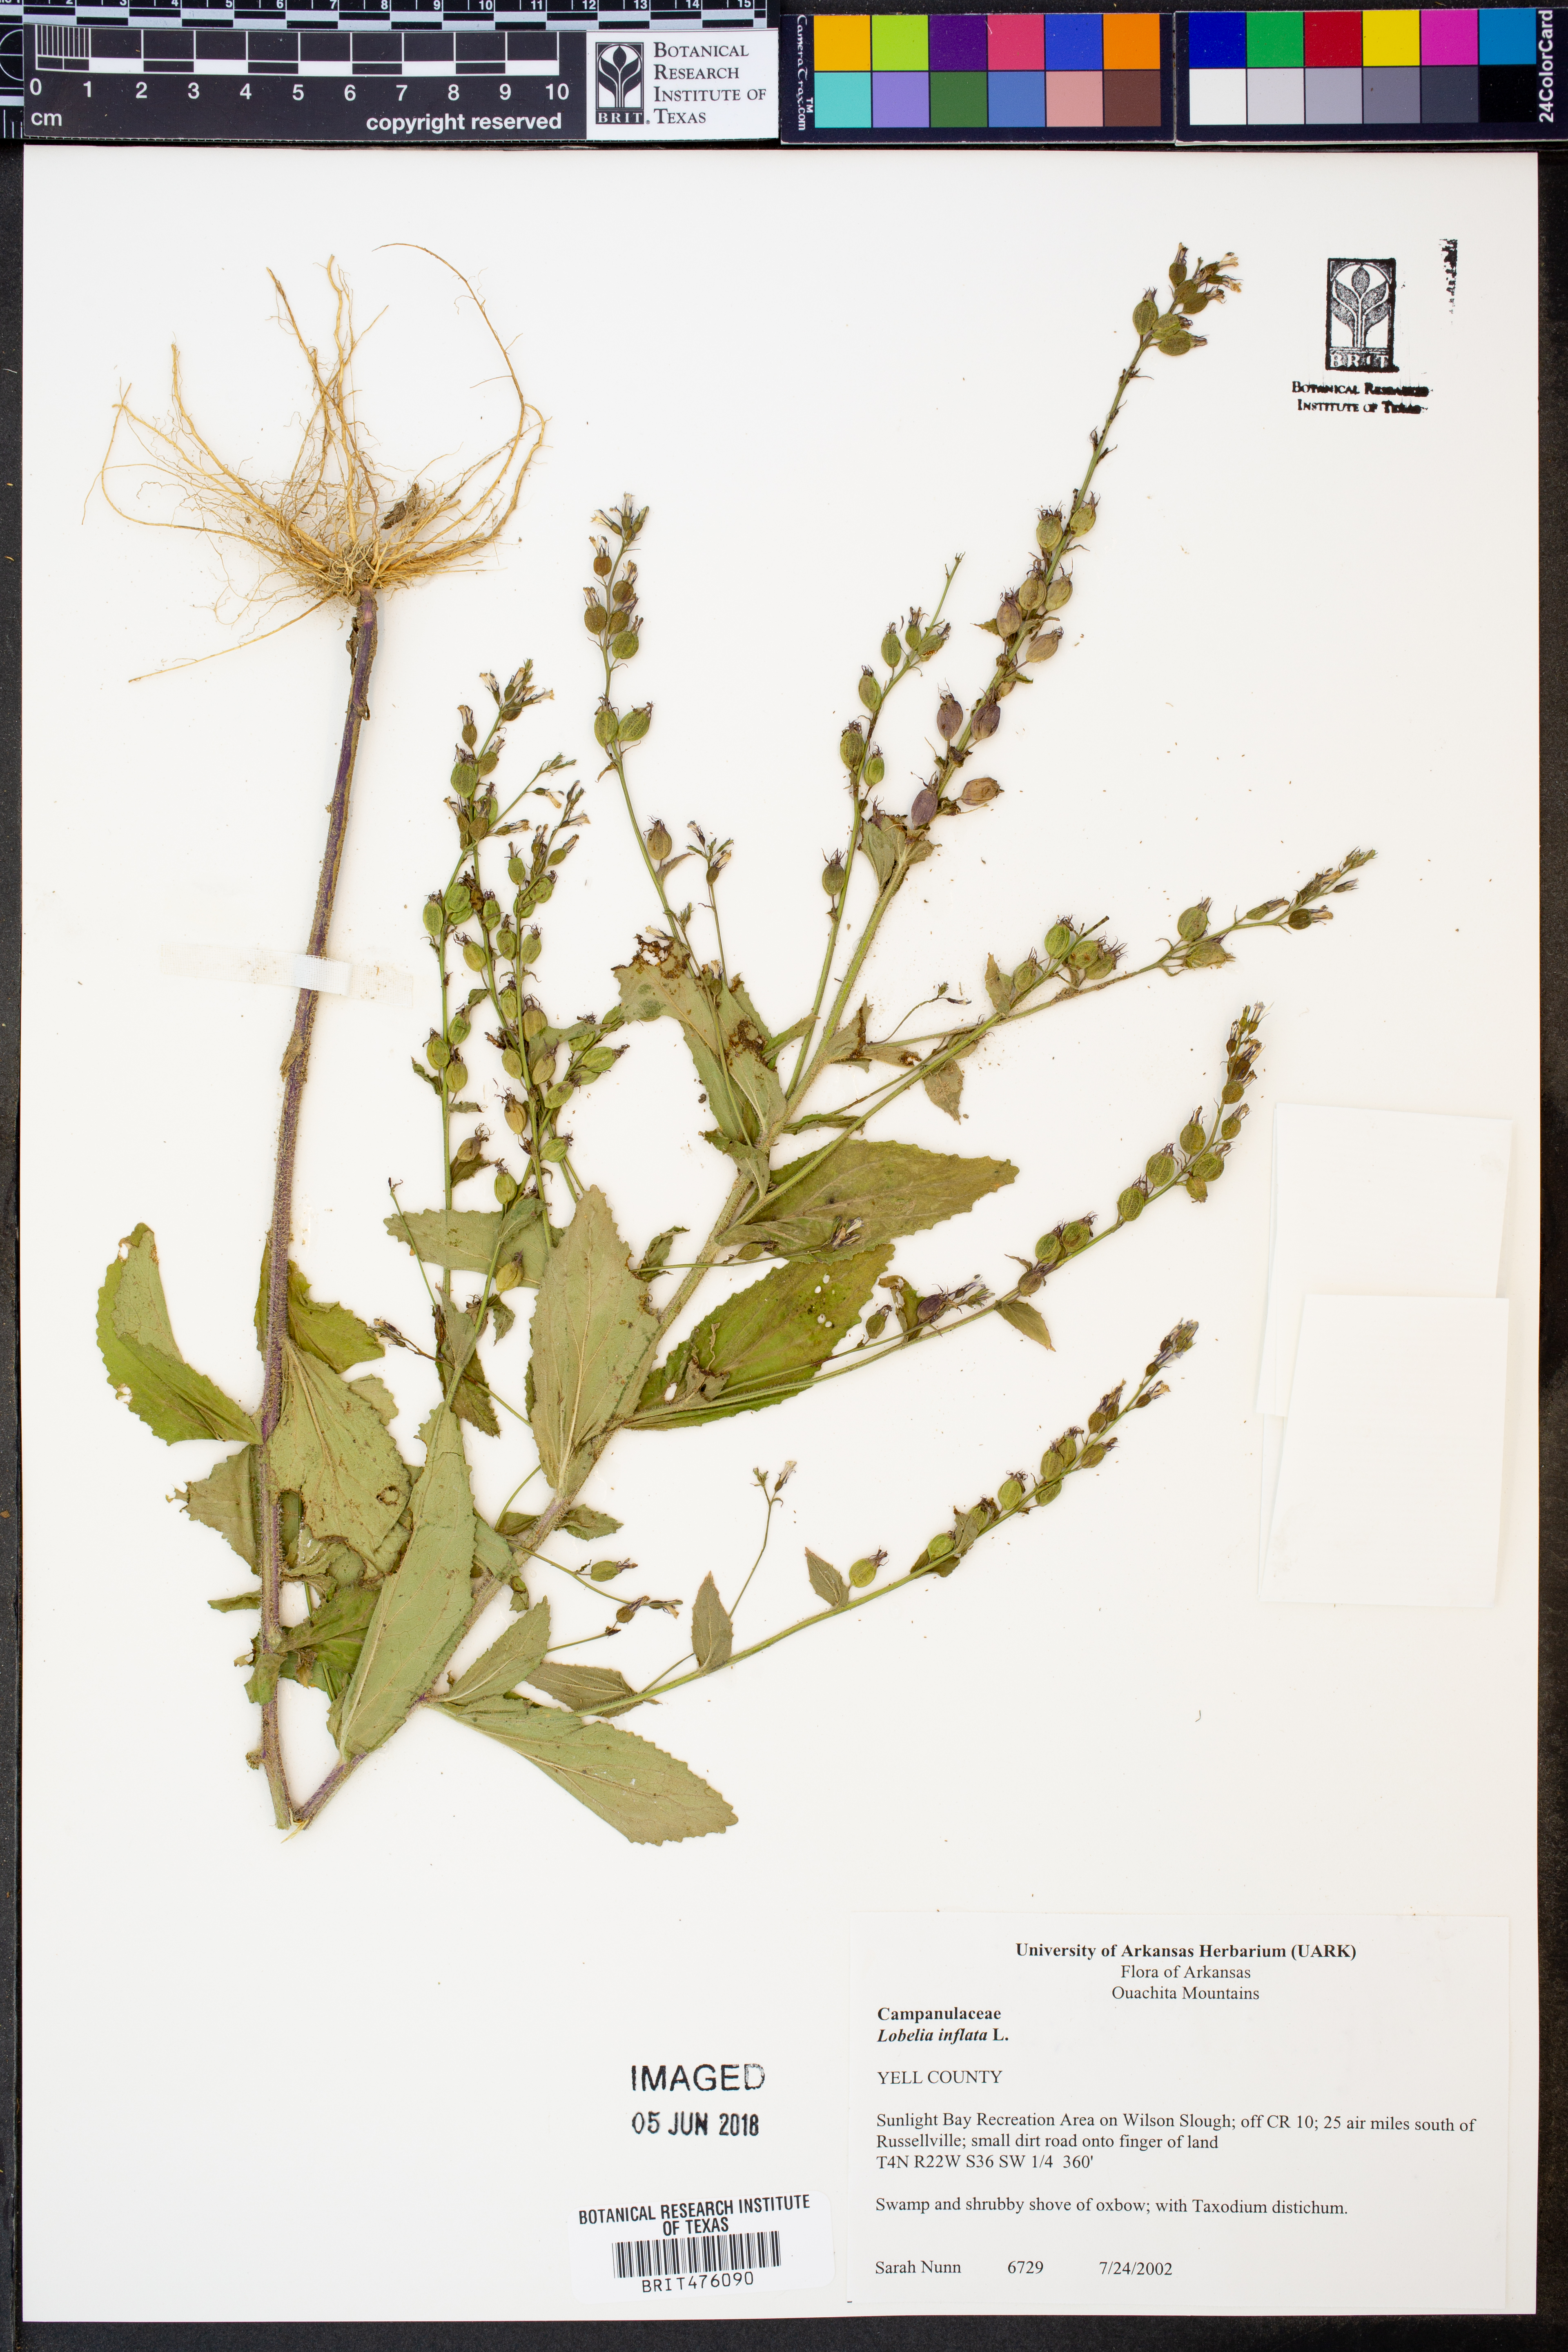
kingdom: Plantae
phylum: Tracheophyta
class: Magnoliopsida
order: Asterales
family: Campanulaceae
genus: Lobelia
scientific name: Lobelia inflata
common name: Indian tobacco
